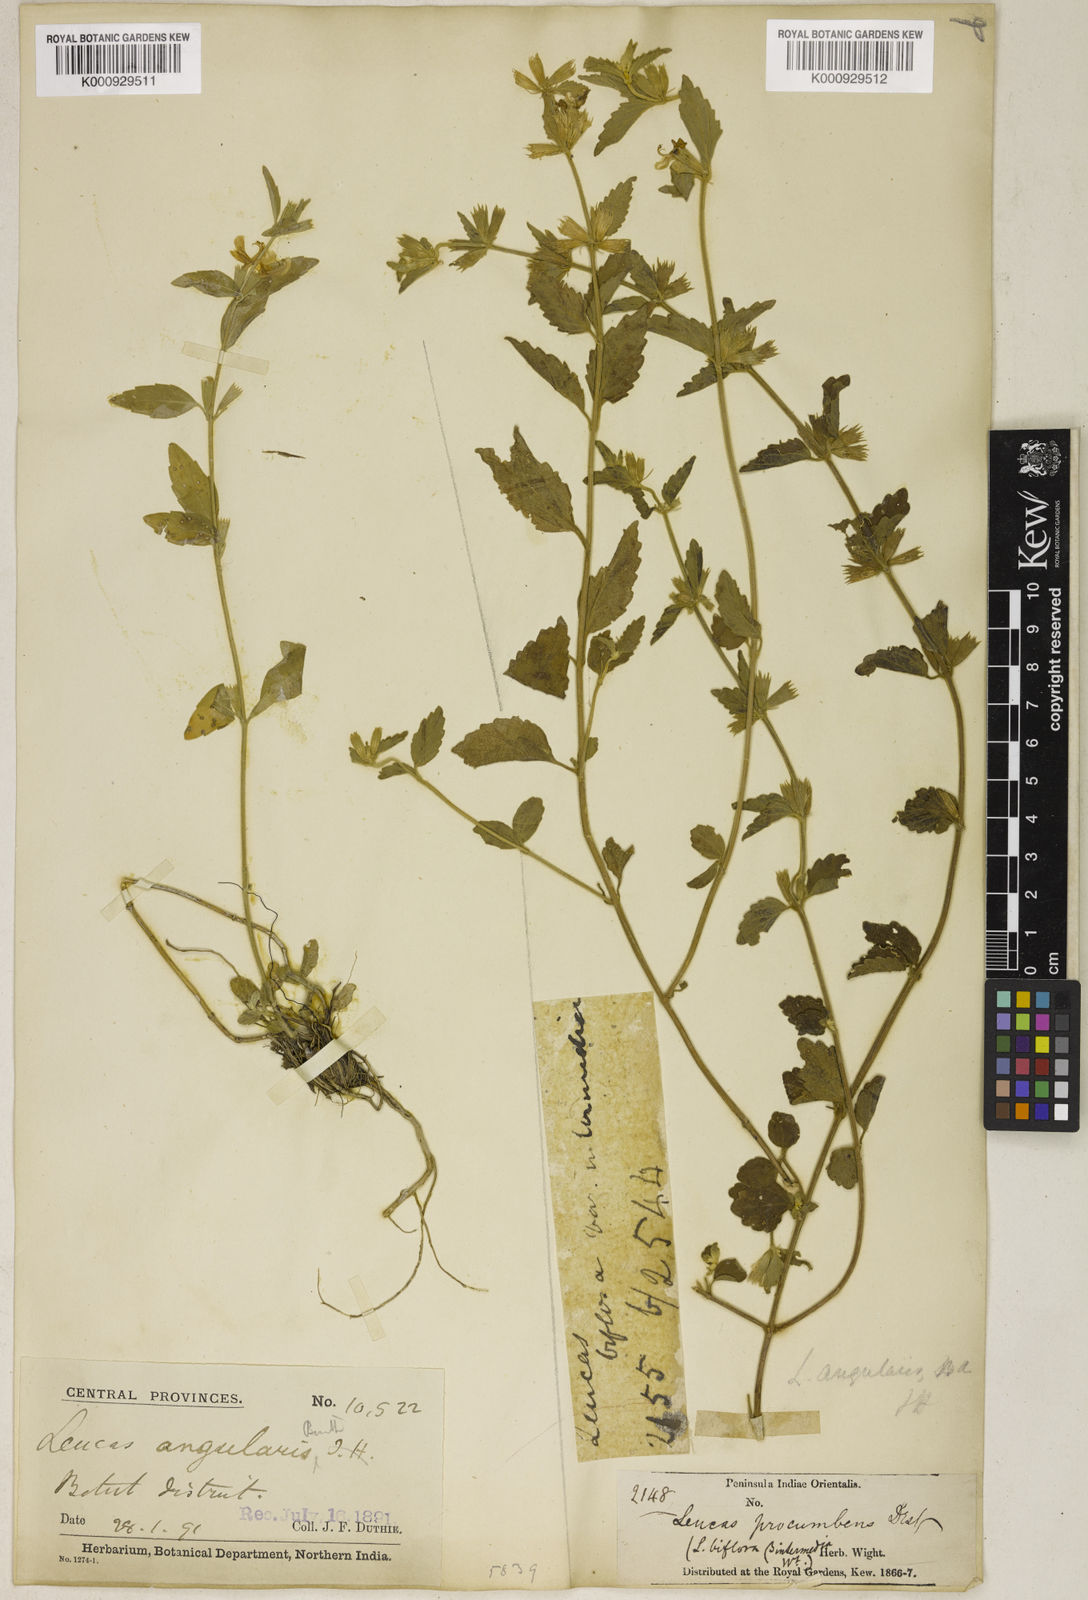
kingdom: Plantae
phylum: Tracheophyta
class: Magnoliopsida
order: Lamiales
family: Lamiaceae
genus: Leucas
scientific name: Leucas angularis
